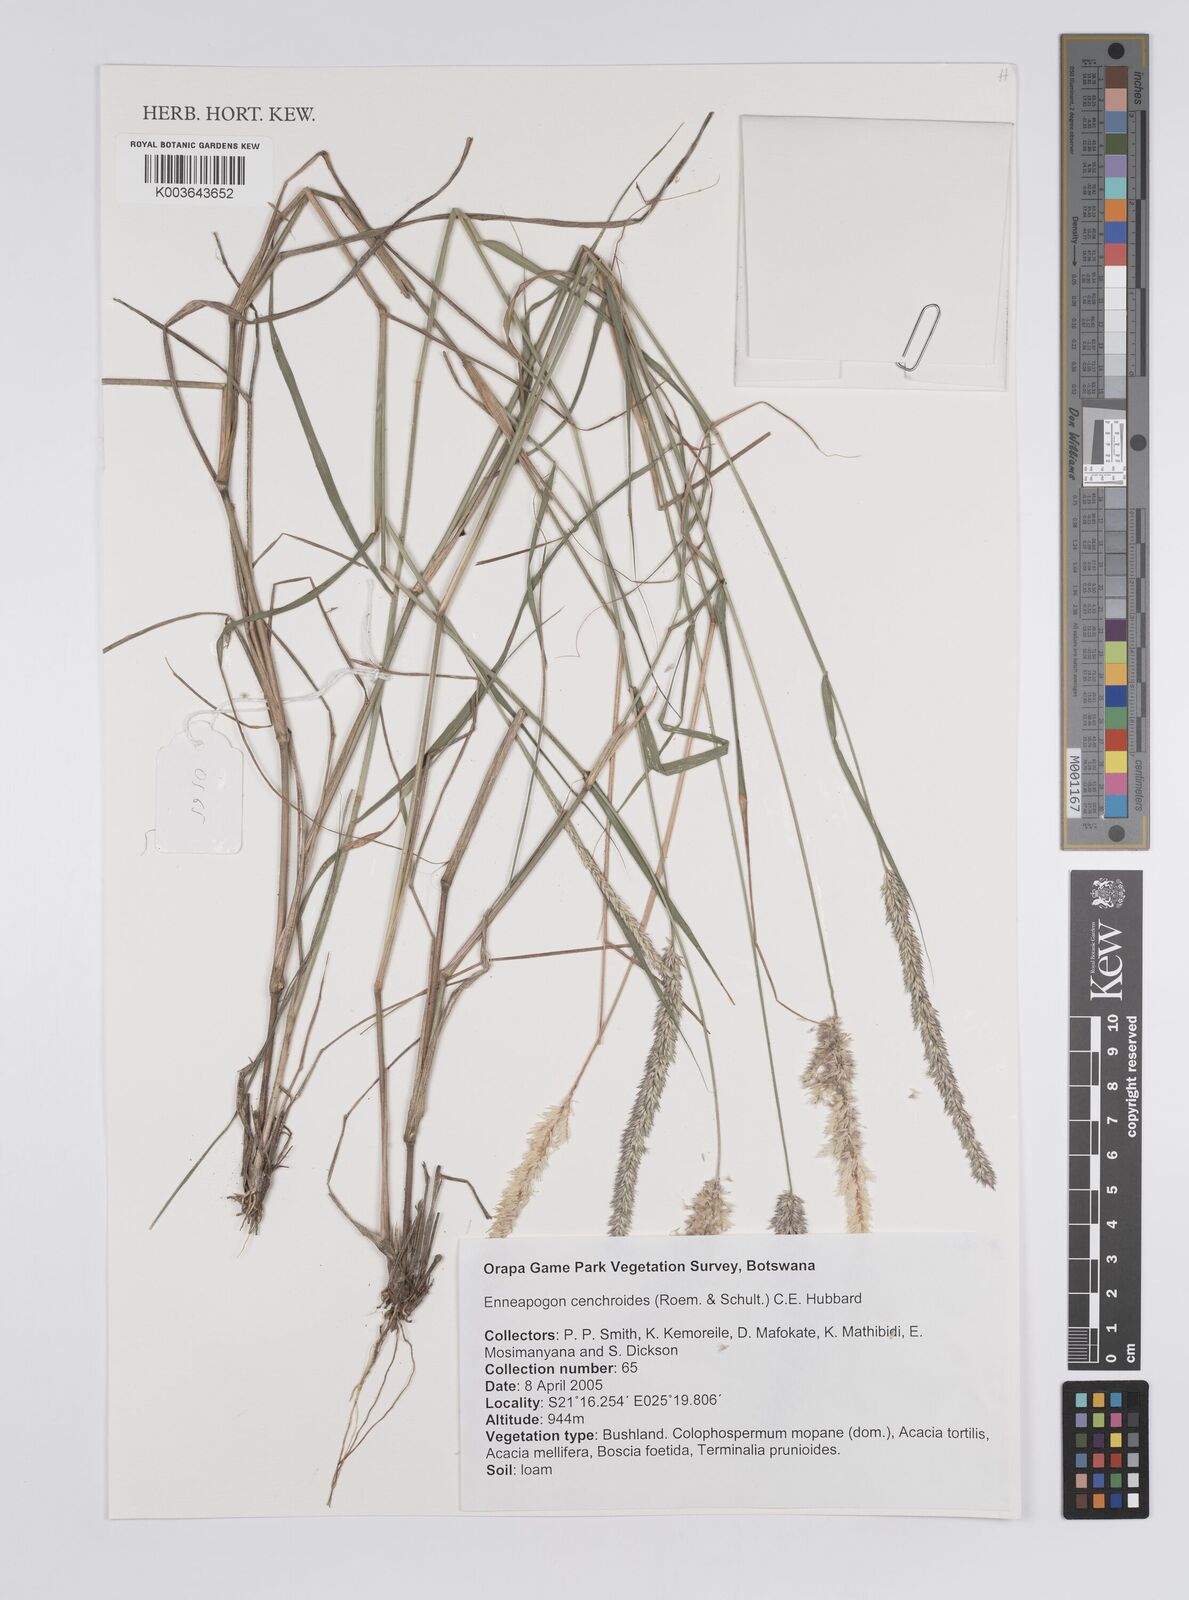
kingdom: Plantae
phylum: Tracheophyta
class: Liliopsida
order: Poales
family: Poaceae
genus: Enneapogon
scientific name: Enneapogon cenchroides
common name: Soft feather pappusgrass
